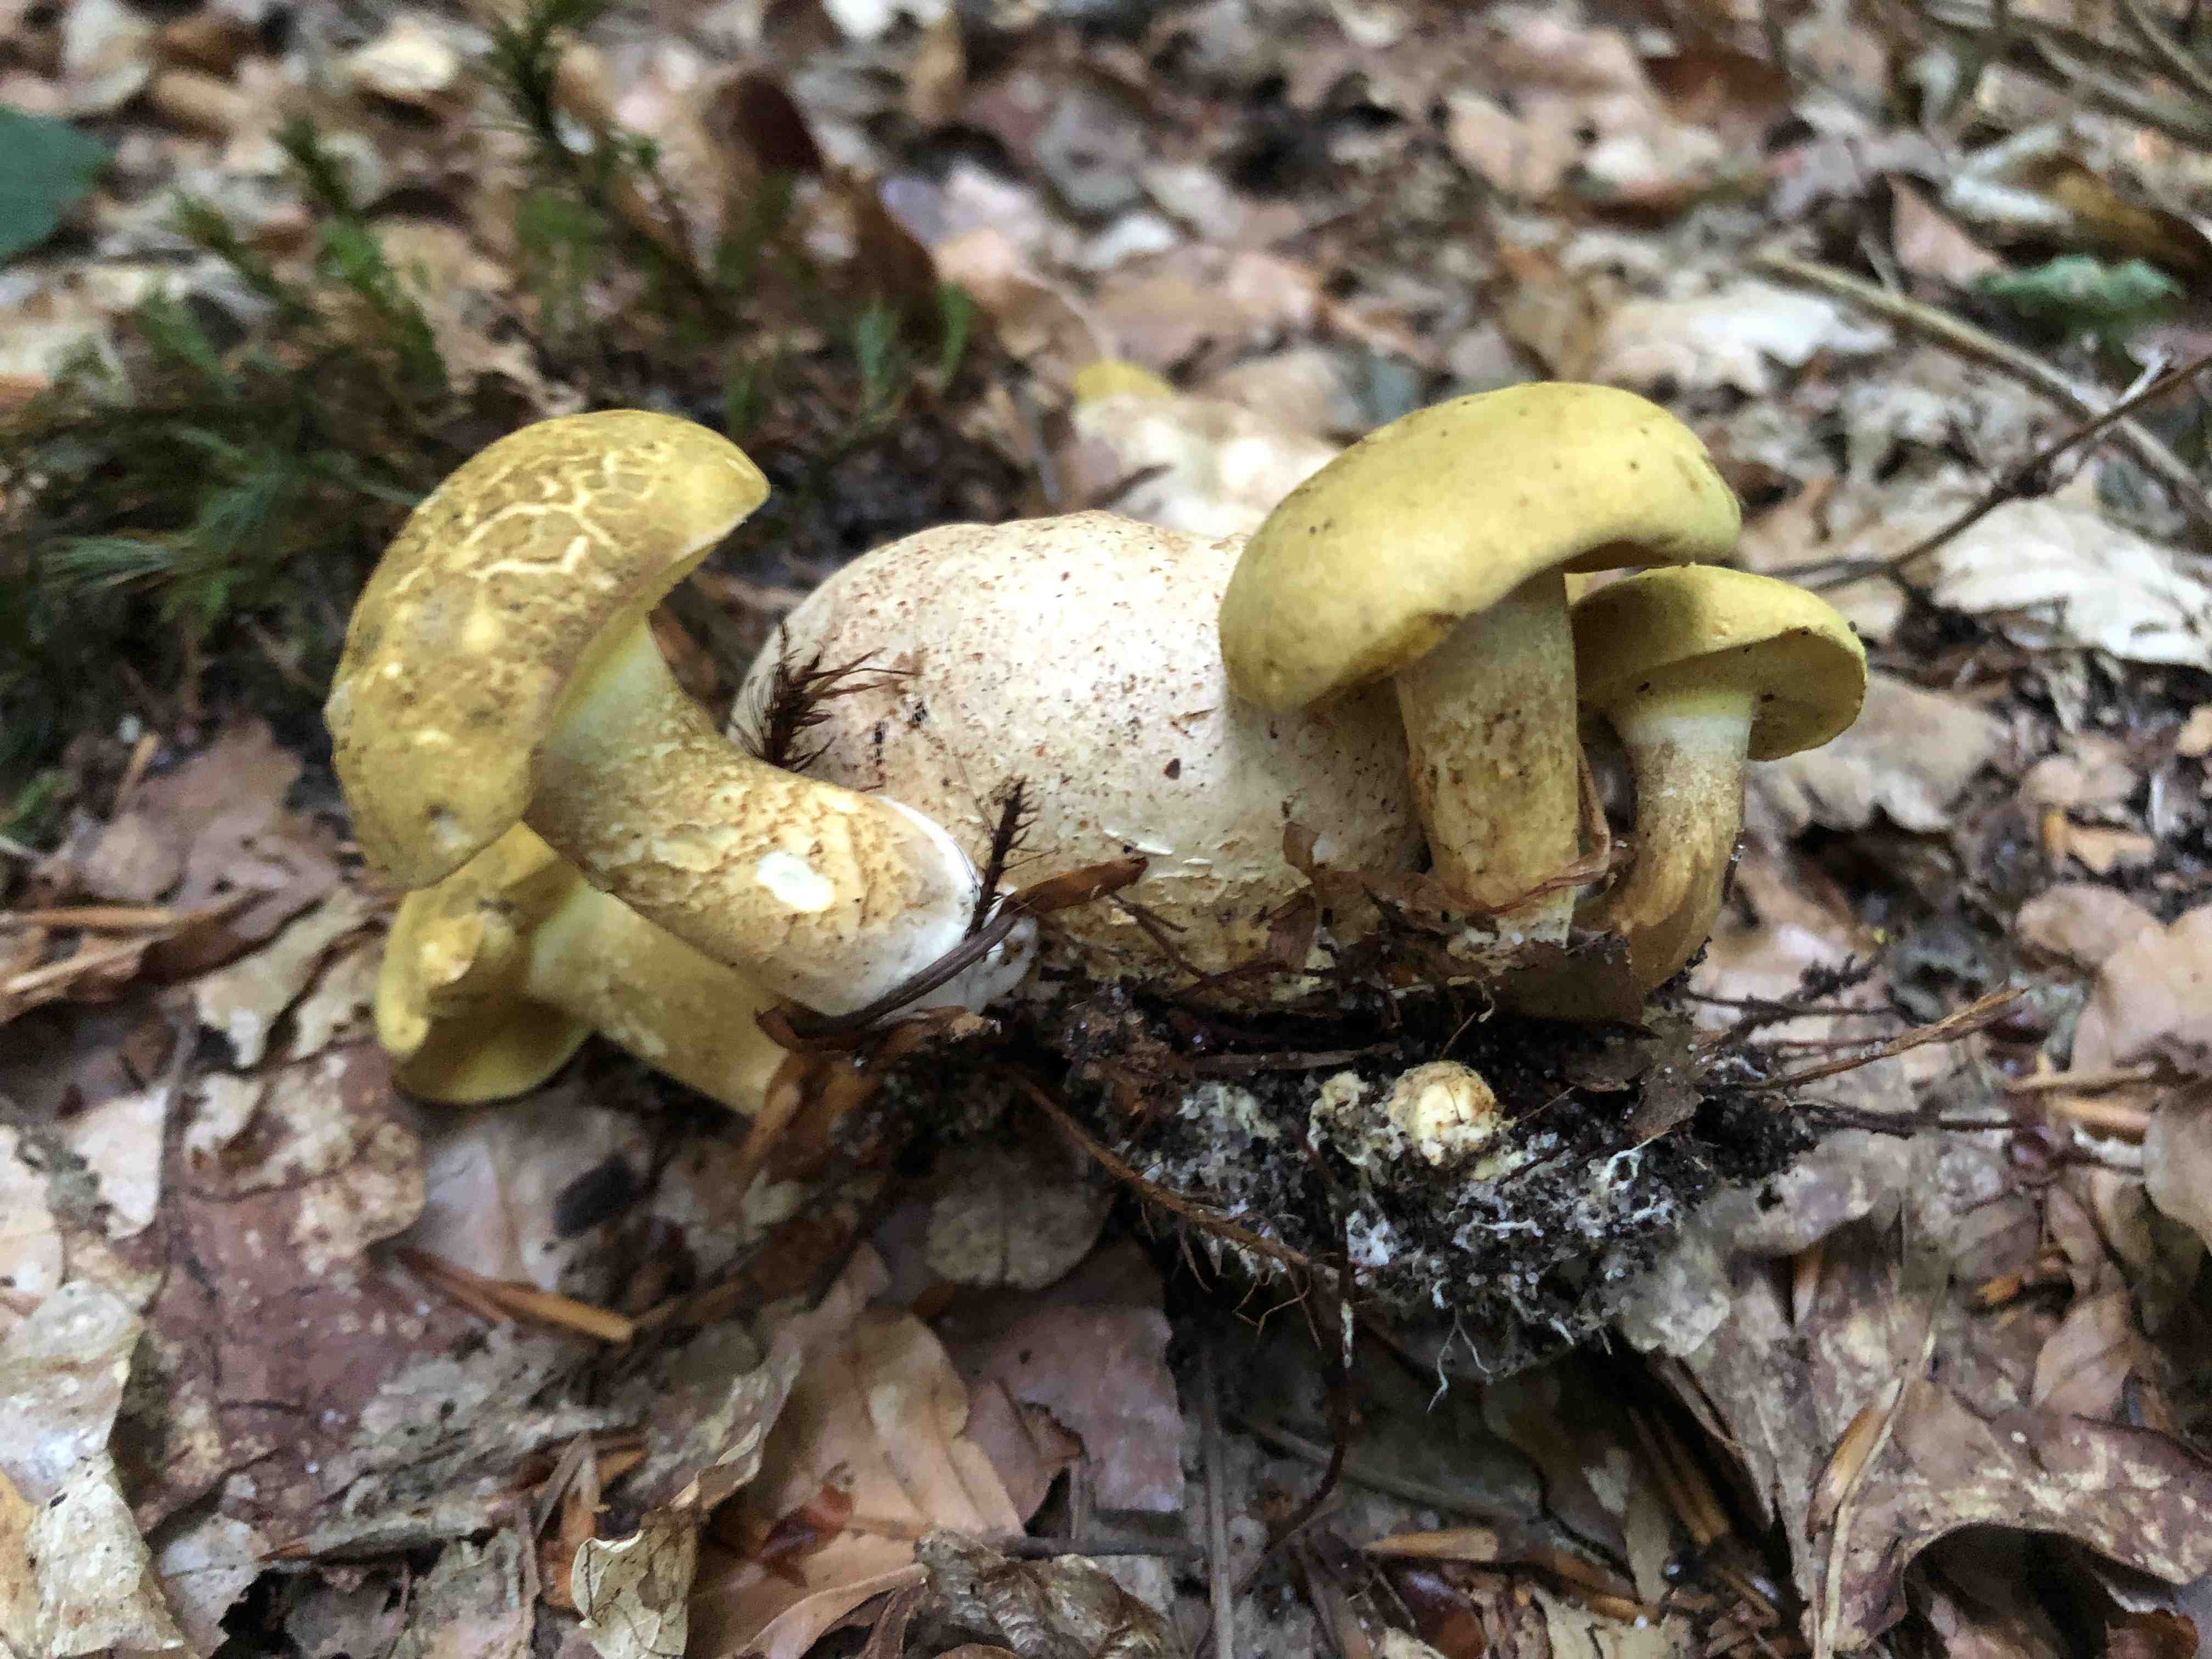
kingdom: Fungi
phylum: Basidiomycota
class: Agaricomycetes
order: Boletales
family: Boletaceae
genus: Pseudoboletus
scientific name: Pseudoboletus parasiticus
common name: snyltende rørhat
